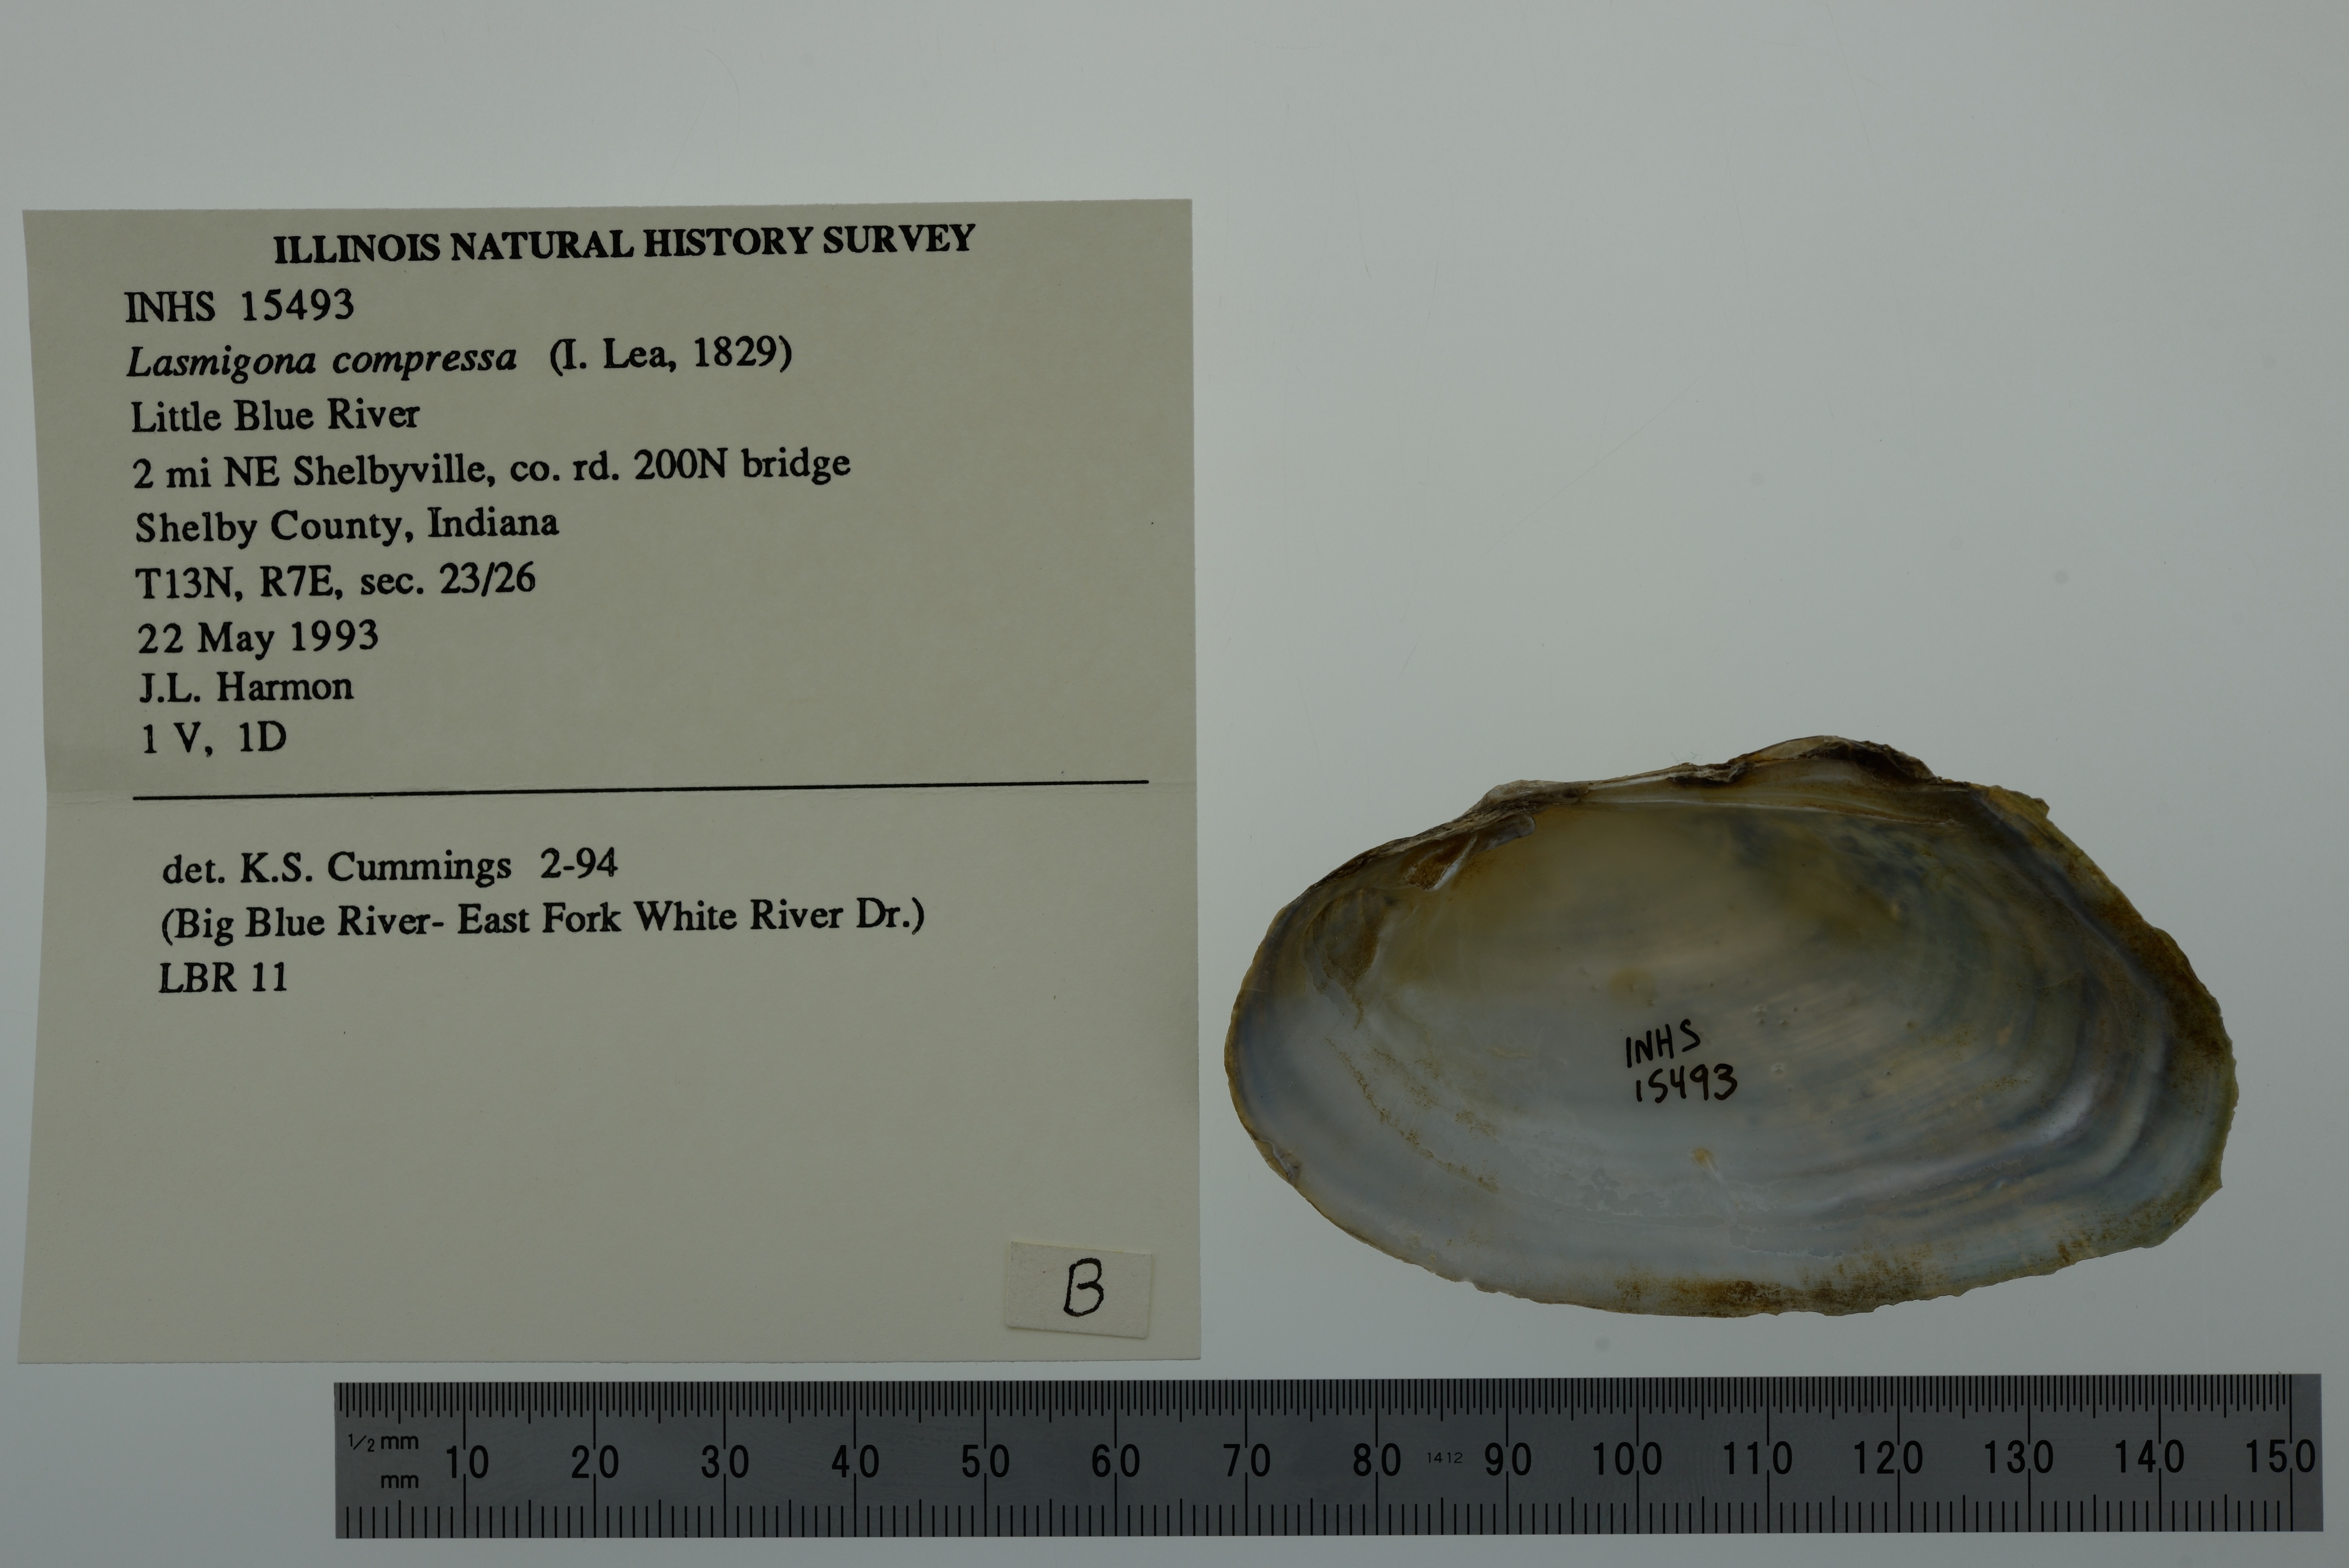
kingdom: Animalia
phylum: Mollusca
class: Bivalvia
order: Unionida
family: Unionidae
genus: Lasmigona
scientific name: Lasmigona compressa
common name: Creek heelsplitter
